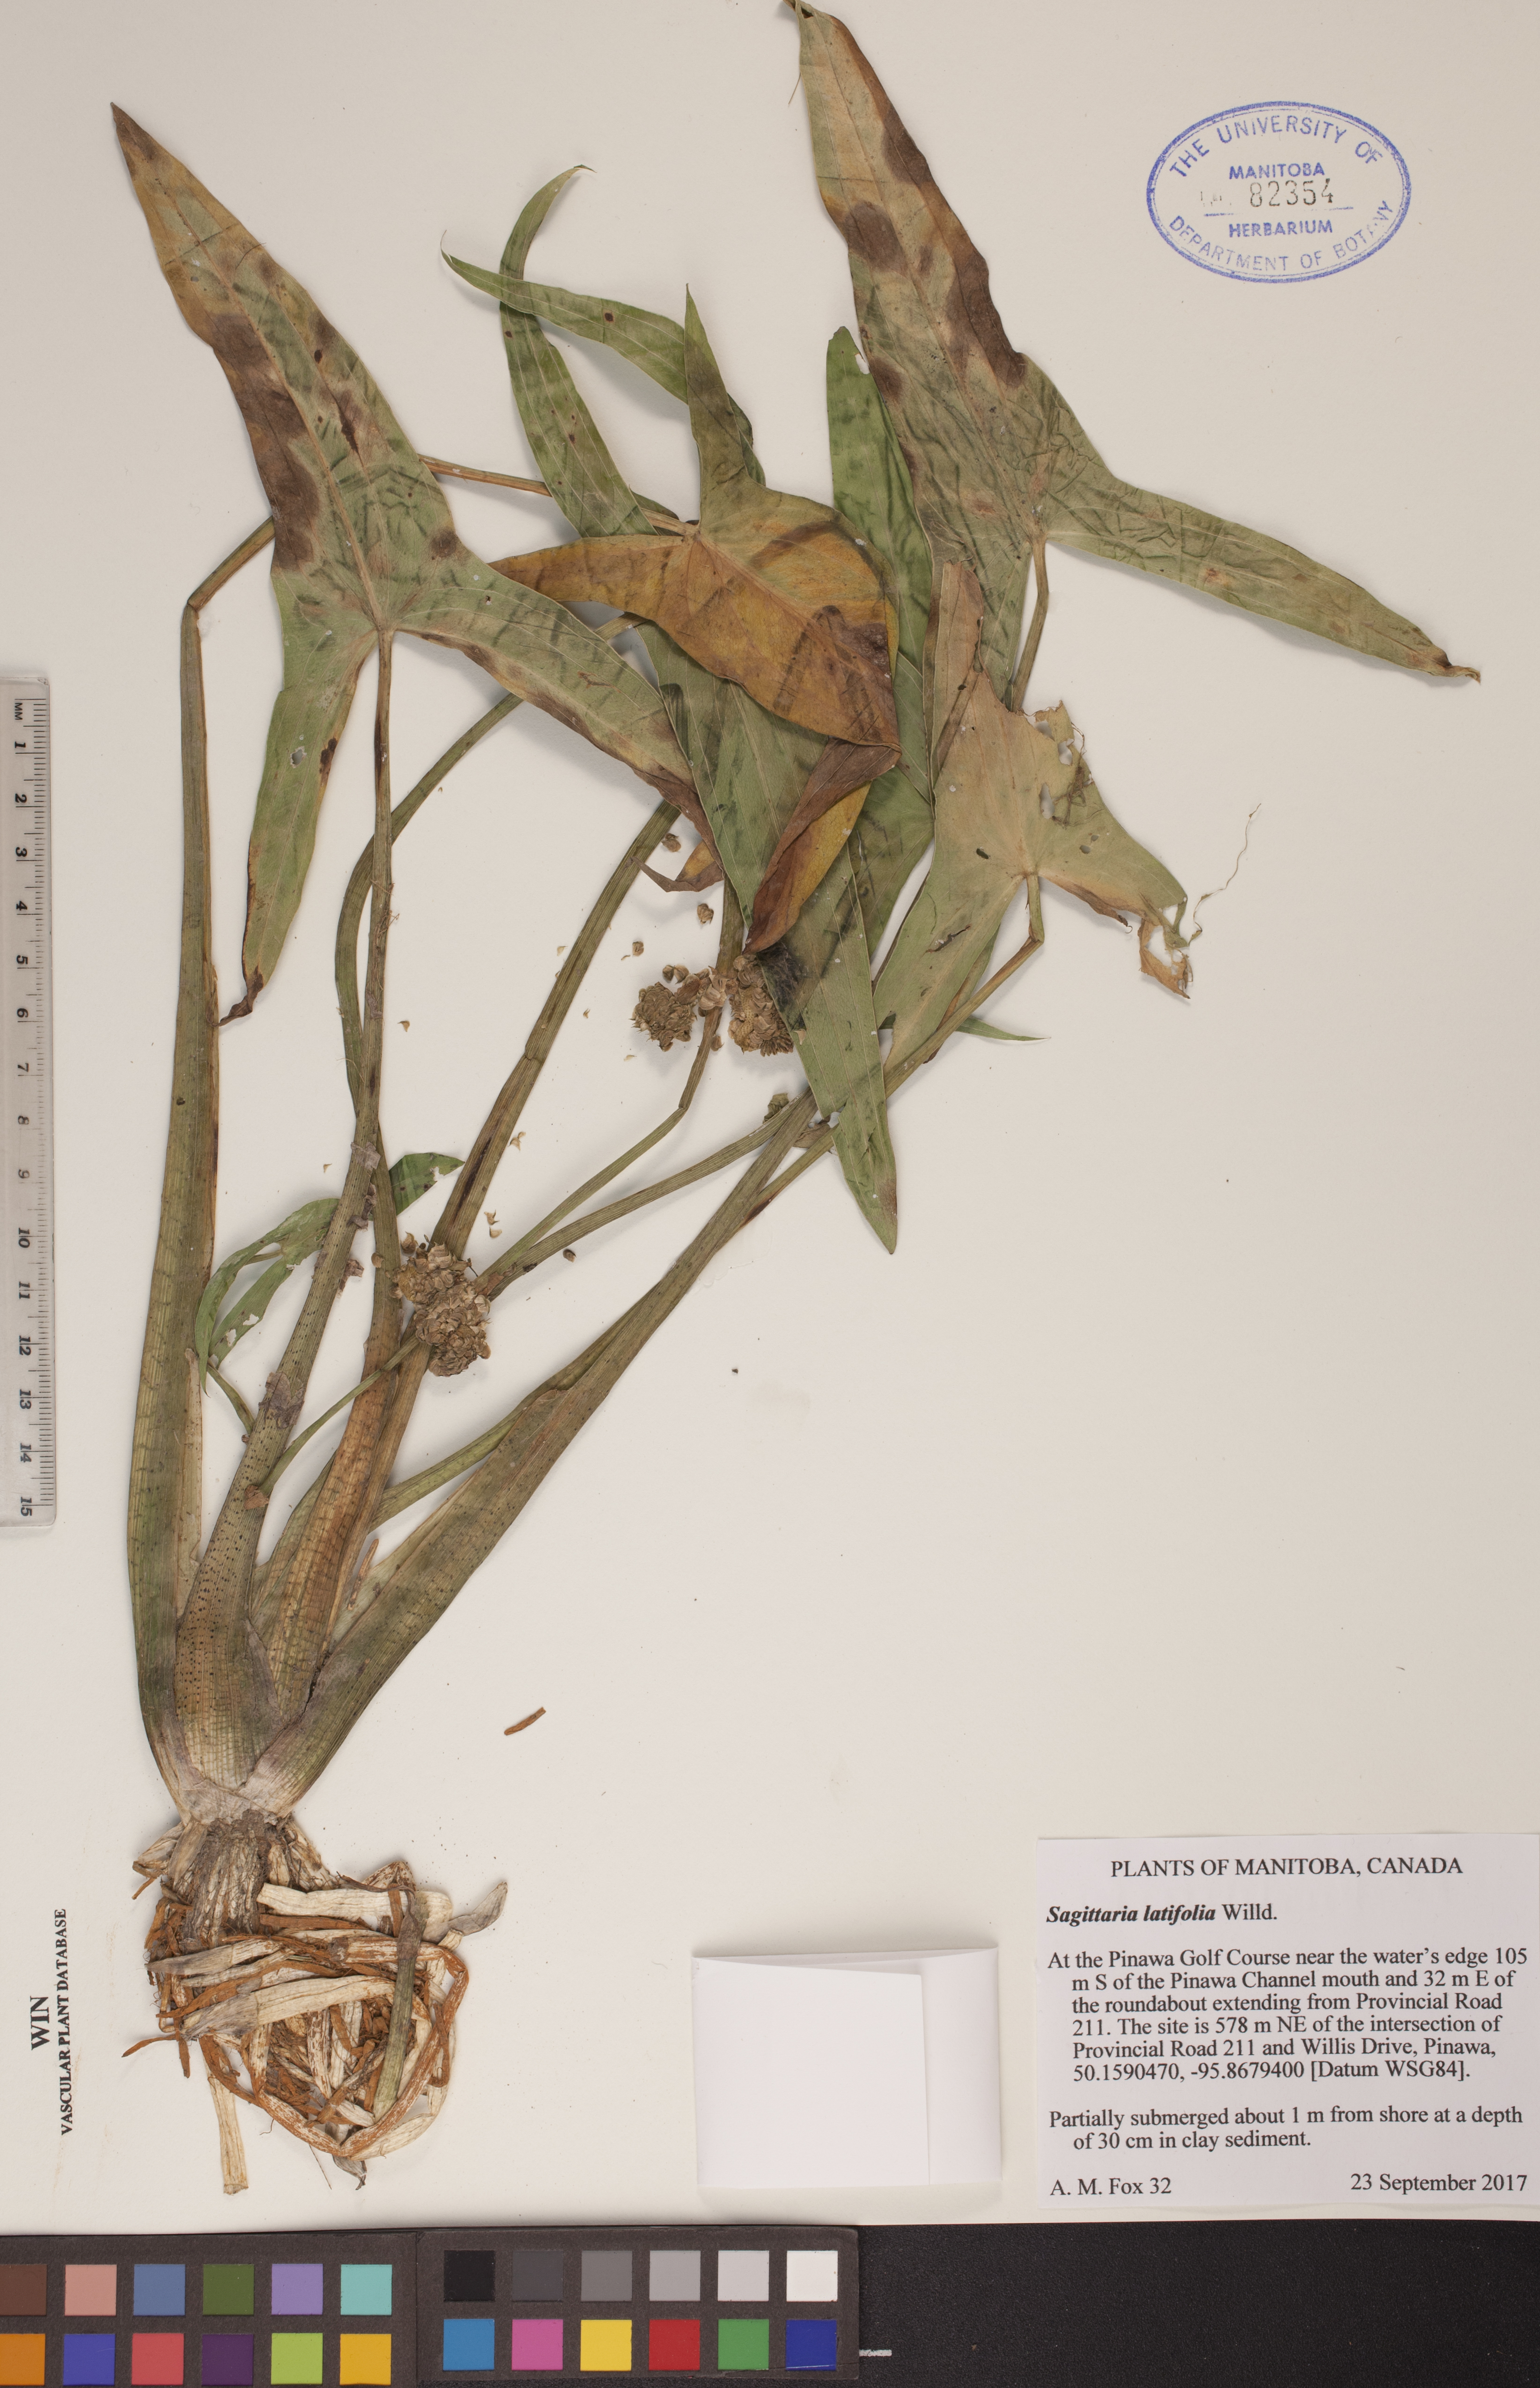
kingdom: Plantae
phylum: Tracheophyta
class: Liliopsida
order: Alismatales
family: Alismataceae
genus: Sagittaria
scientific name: Sagittaria latifolia
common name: Duck-potato
